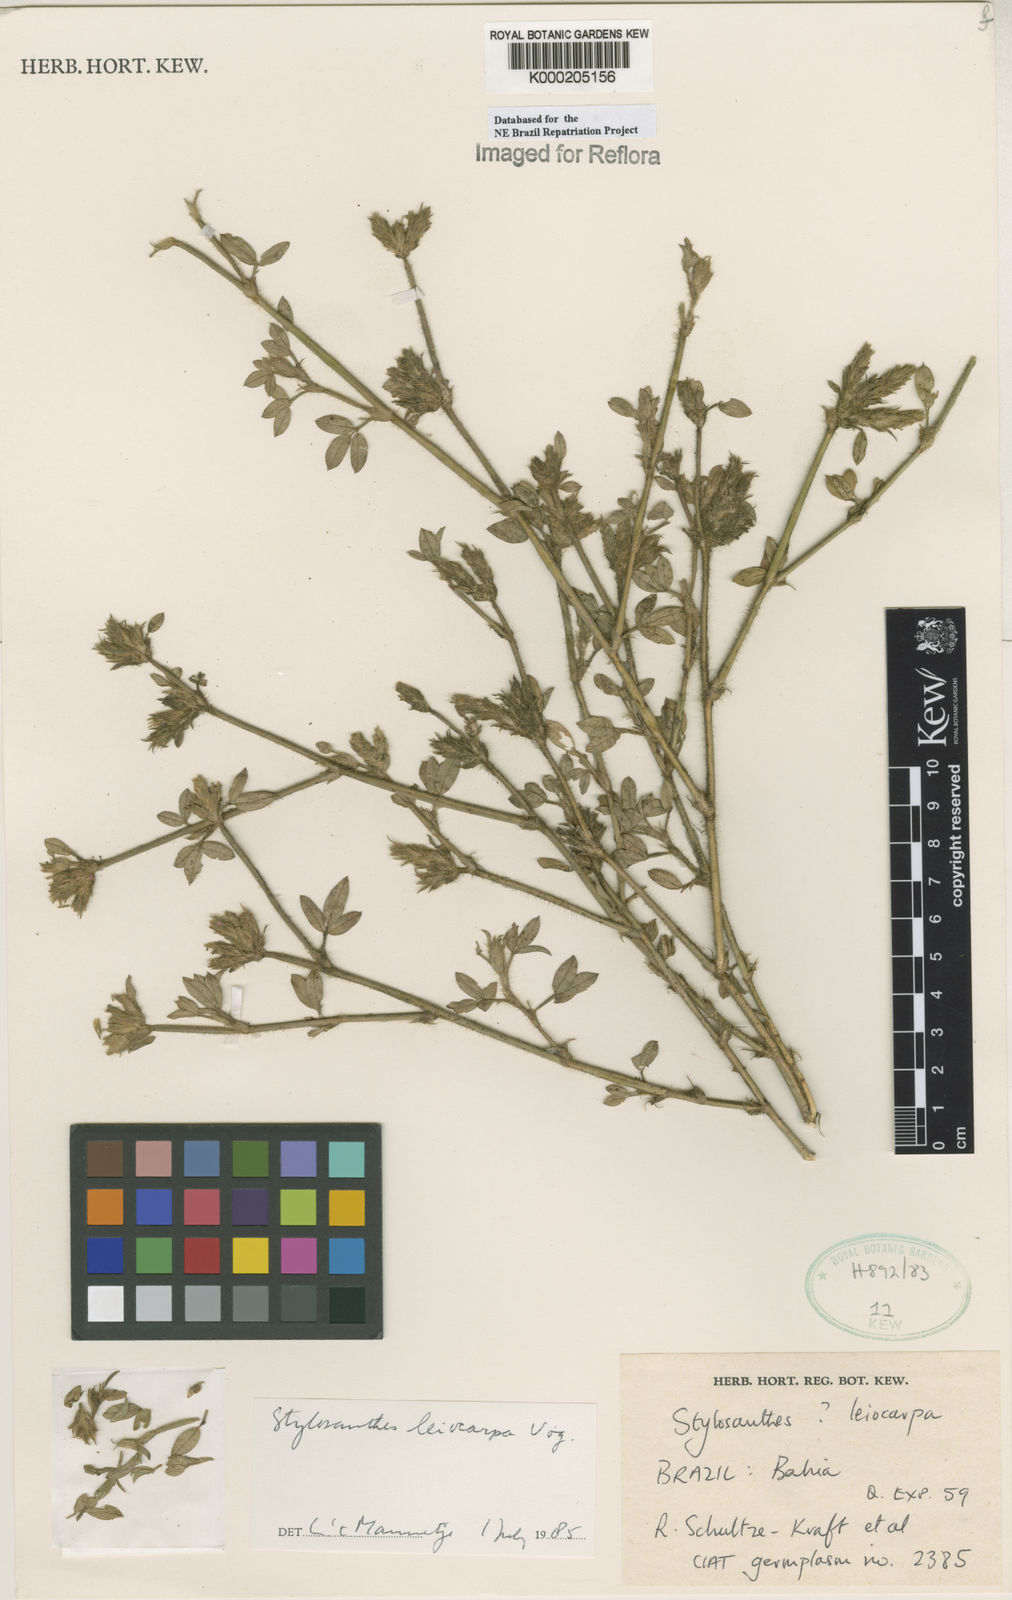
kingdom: Plantae
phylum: Tracheophyta
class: Magnoliopsida
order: Fabales
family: Fabaceae
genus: Stylosanthes
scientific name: Stylosanthes leiocarpa
